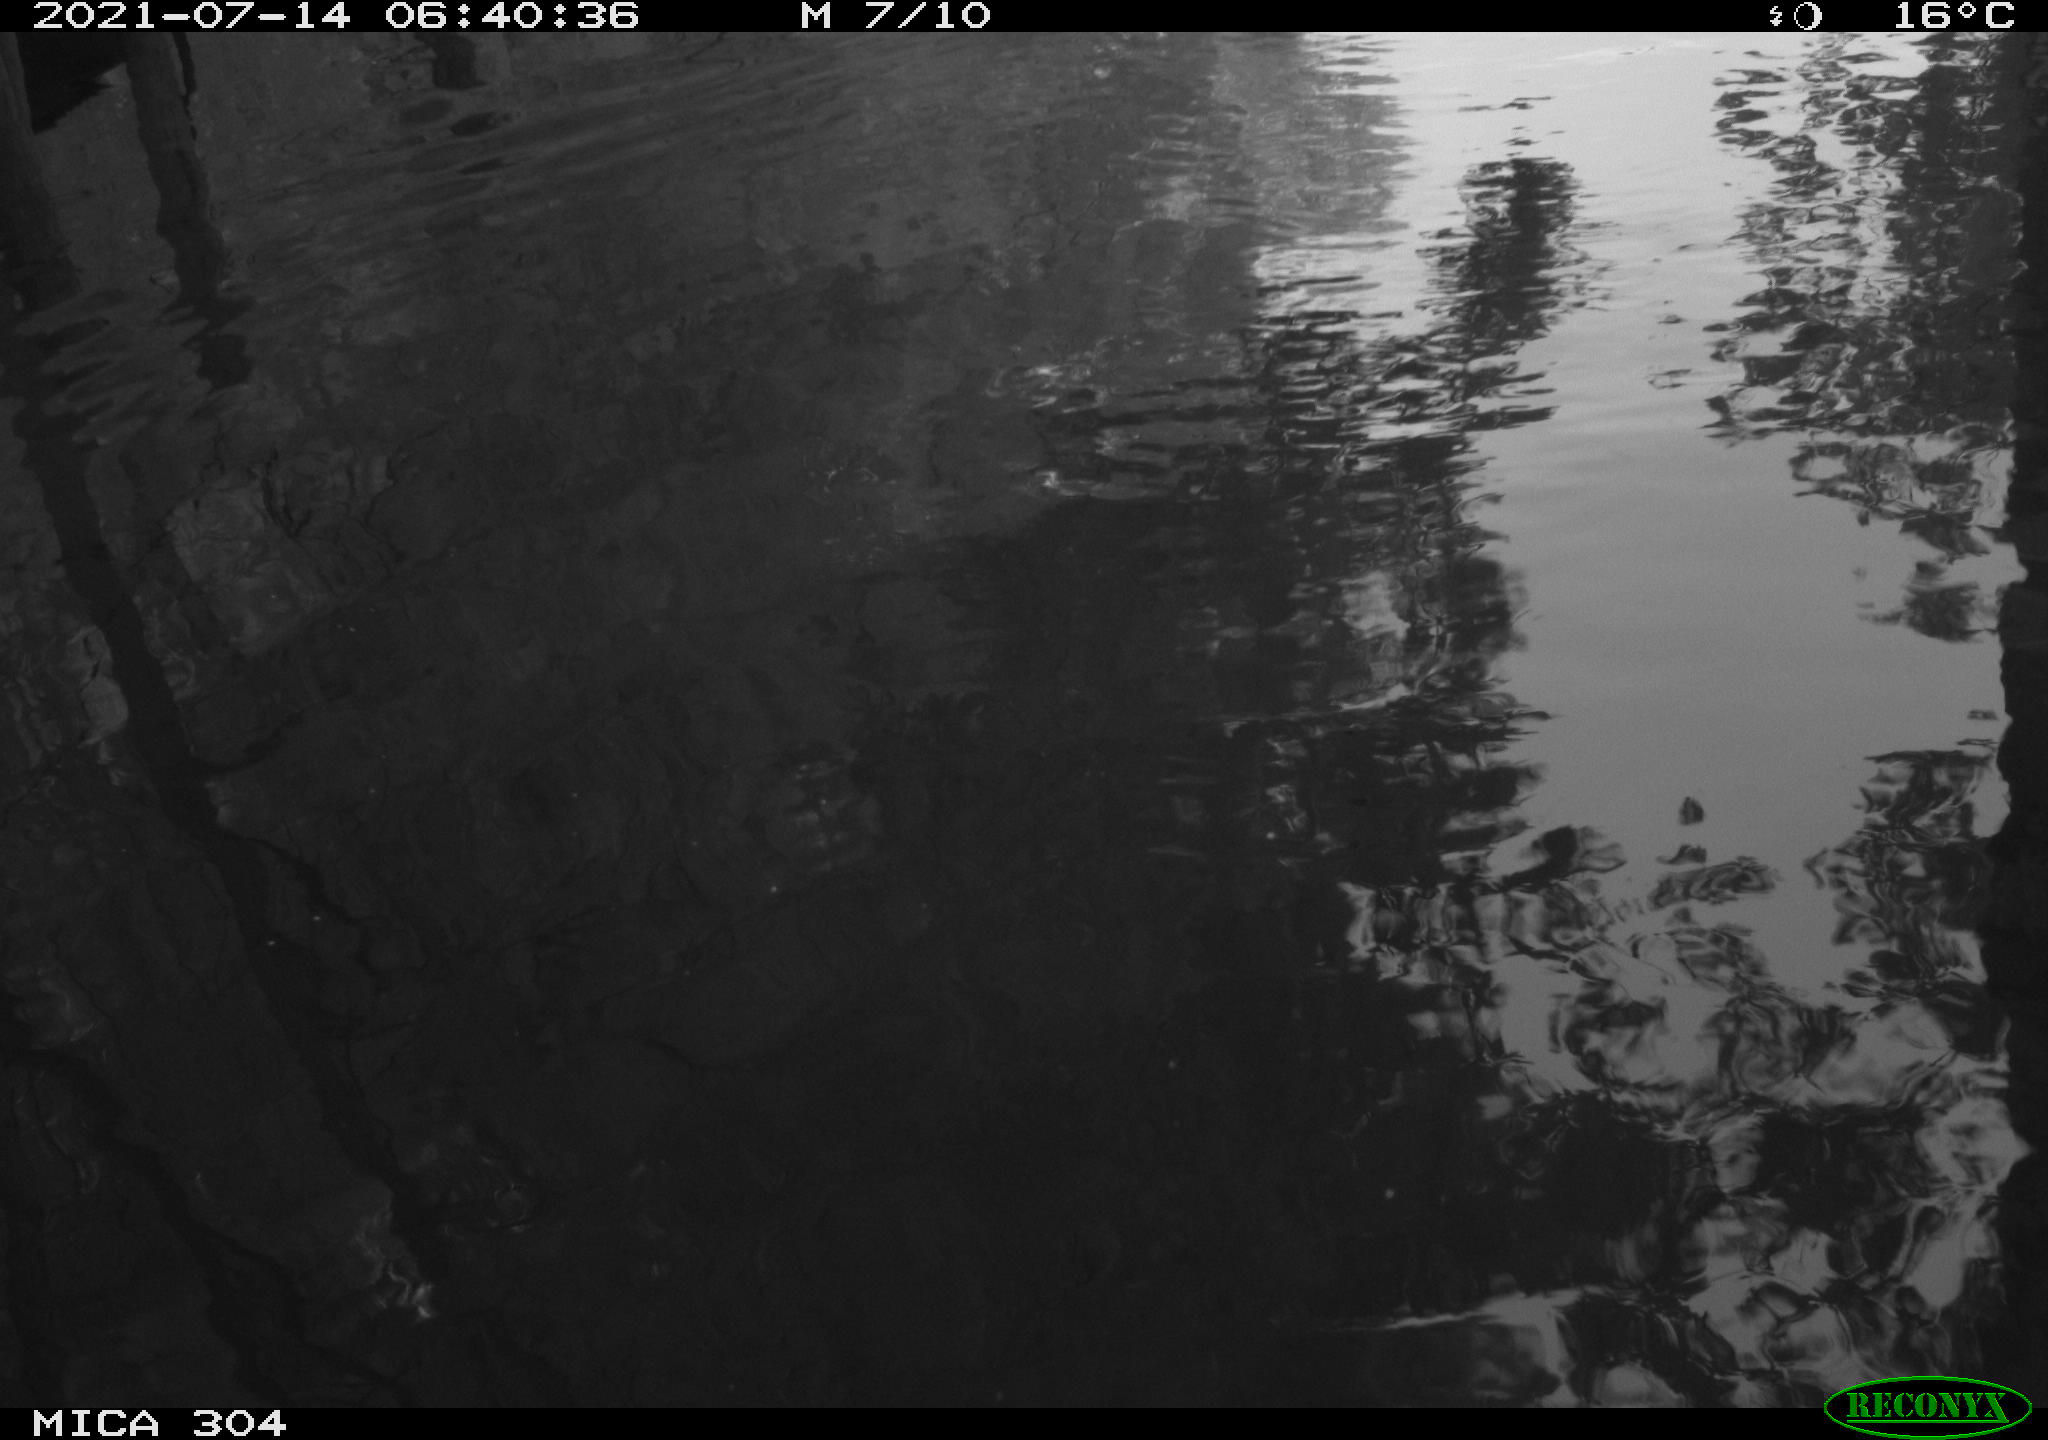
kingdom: Animalia
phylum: Chordata
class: Aves
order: Anseriformes
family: Anatidae
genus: Anas
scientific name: Anas platyrhynchos
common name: Mallard
